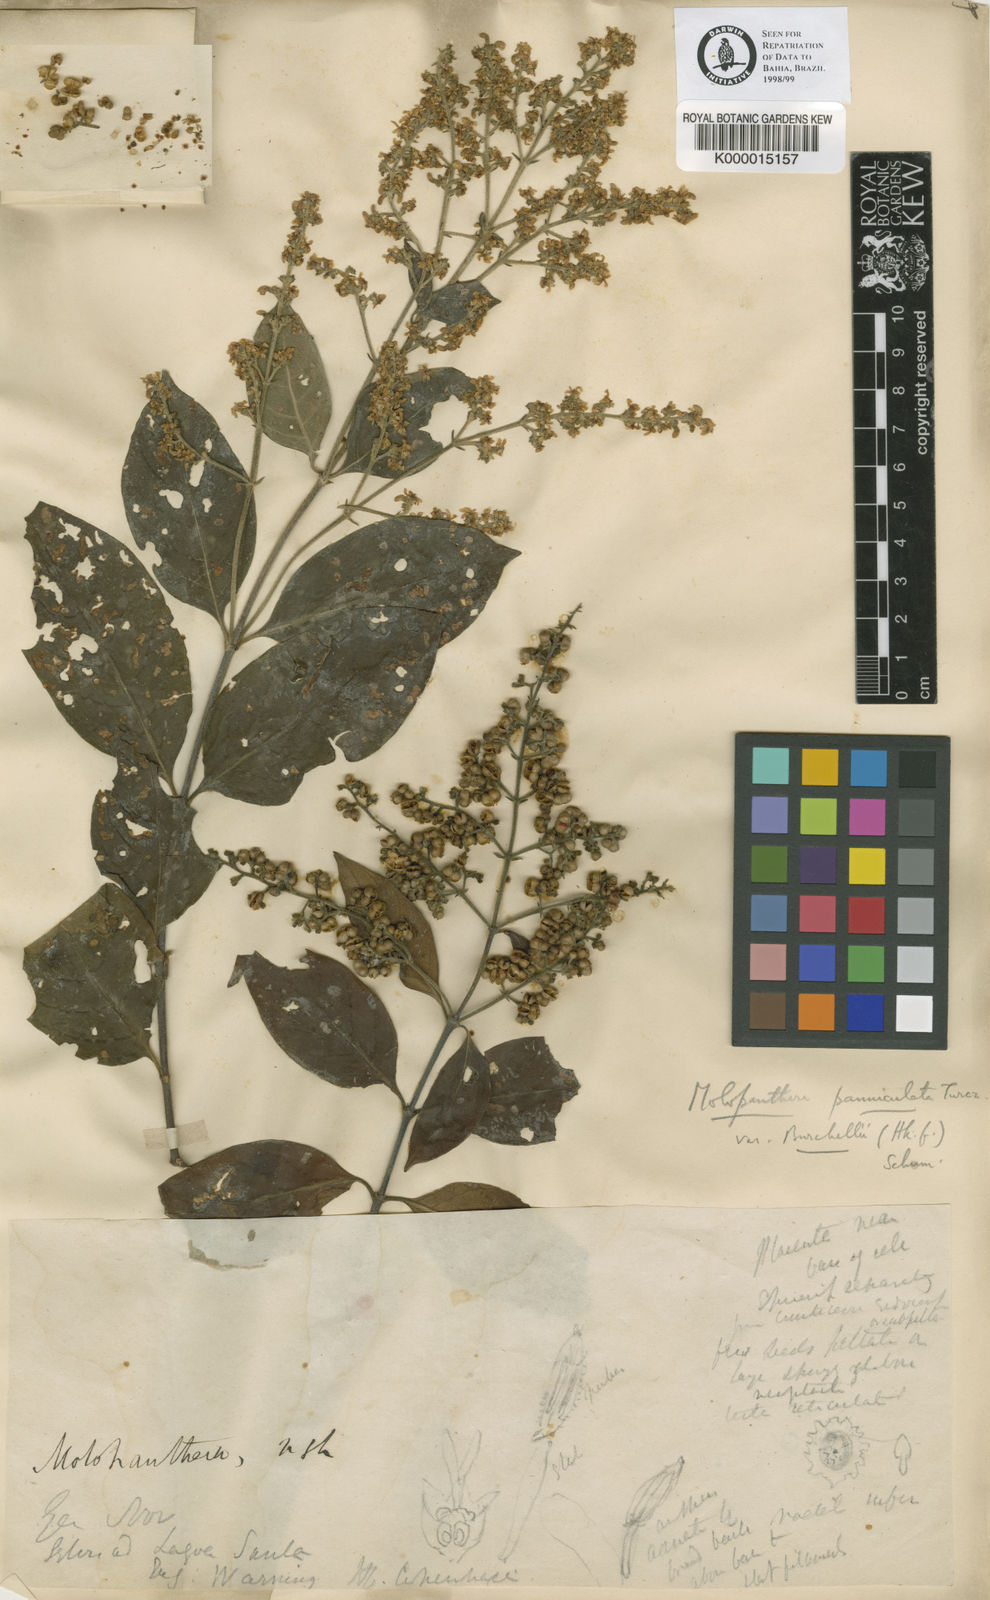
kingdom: Plantae
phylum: Tracheophyta
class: Magnoliopsida
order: Gentianales
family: Rubiaceae
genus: Molopanthera
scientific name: Molopanthera paniculata
